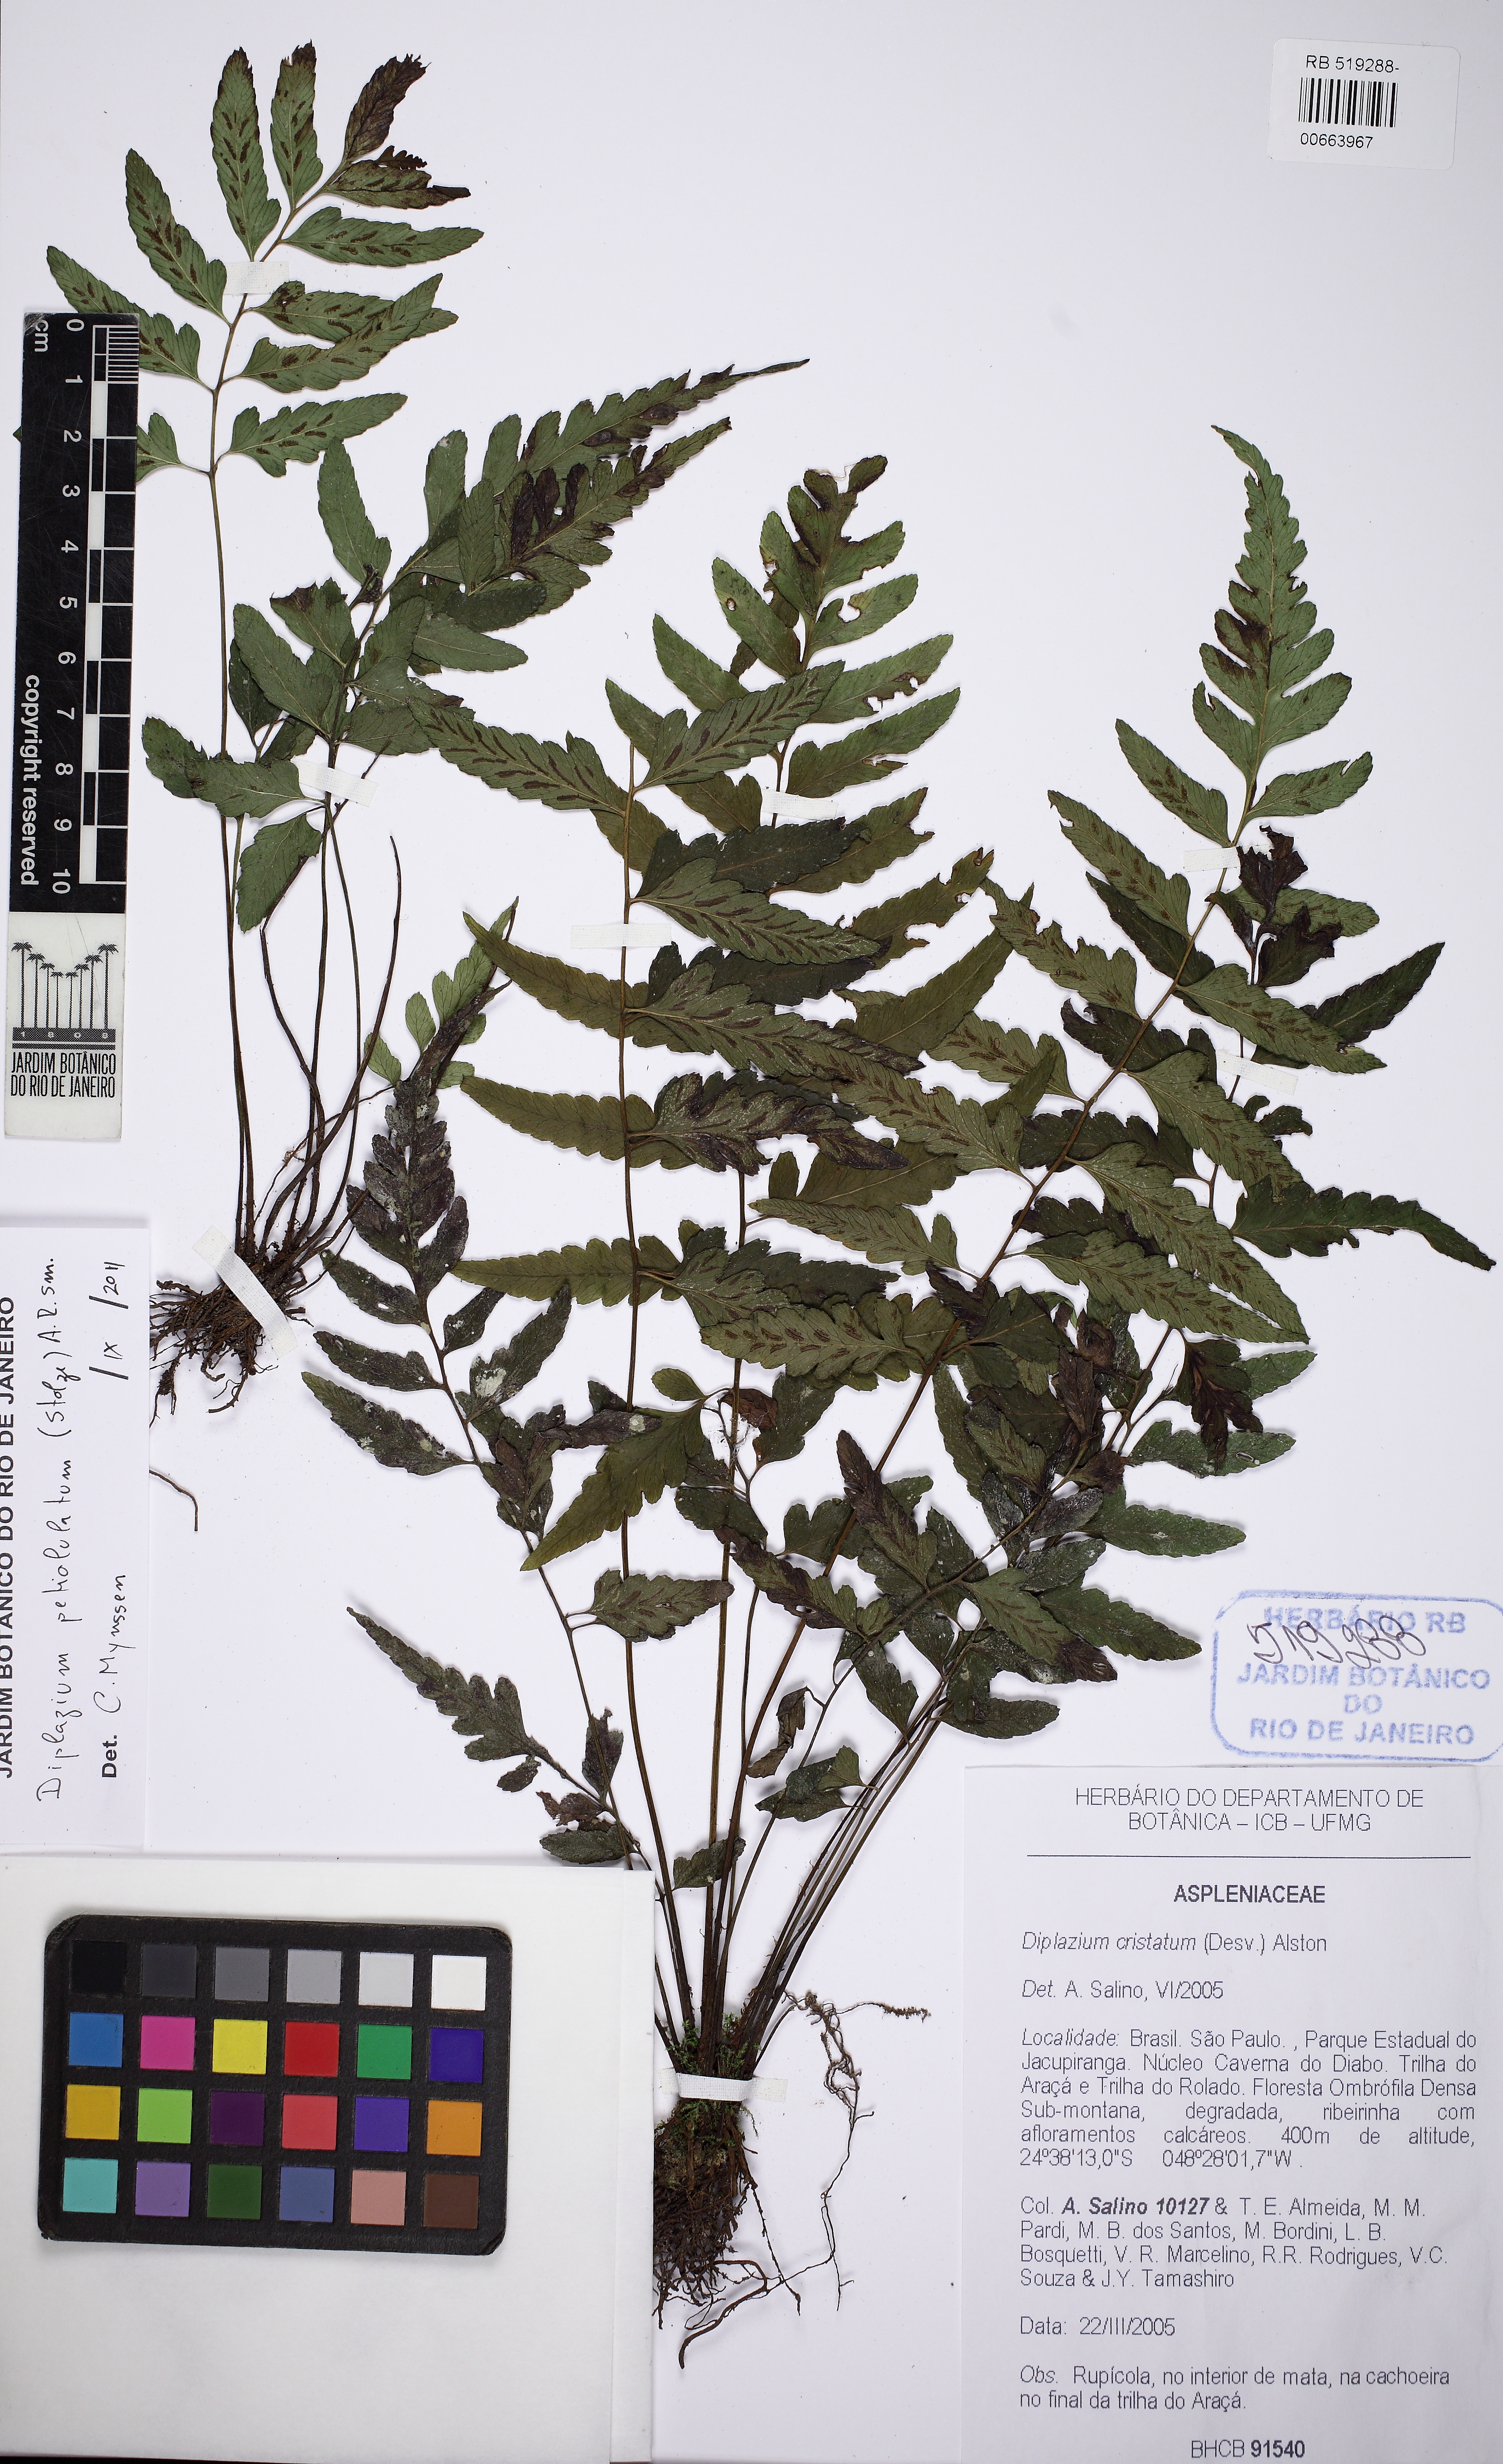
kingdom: Plantae
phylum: Tracheophyta
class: Polypodiopsida
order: Polypodiales
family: Athyriaceae
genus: Diplazium
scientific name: Diplazium petiolulatum
